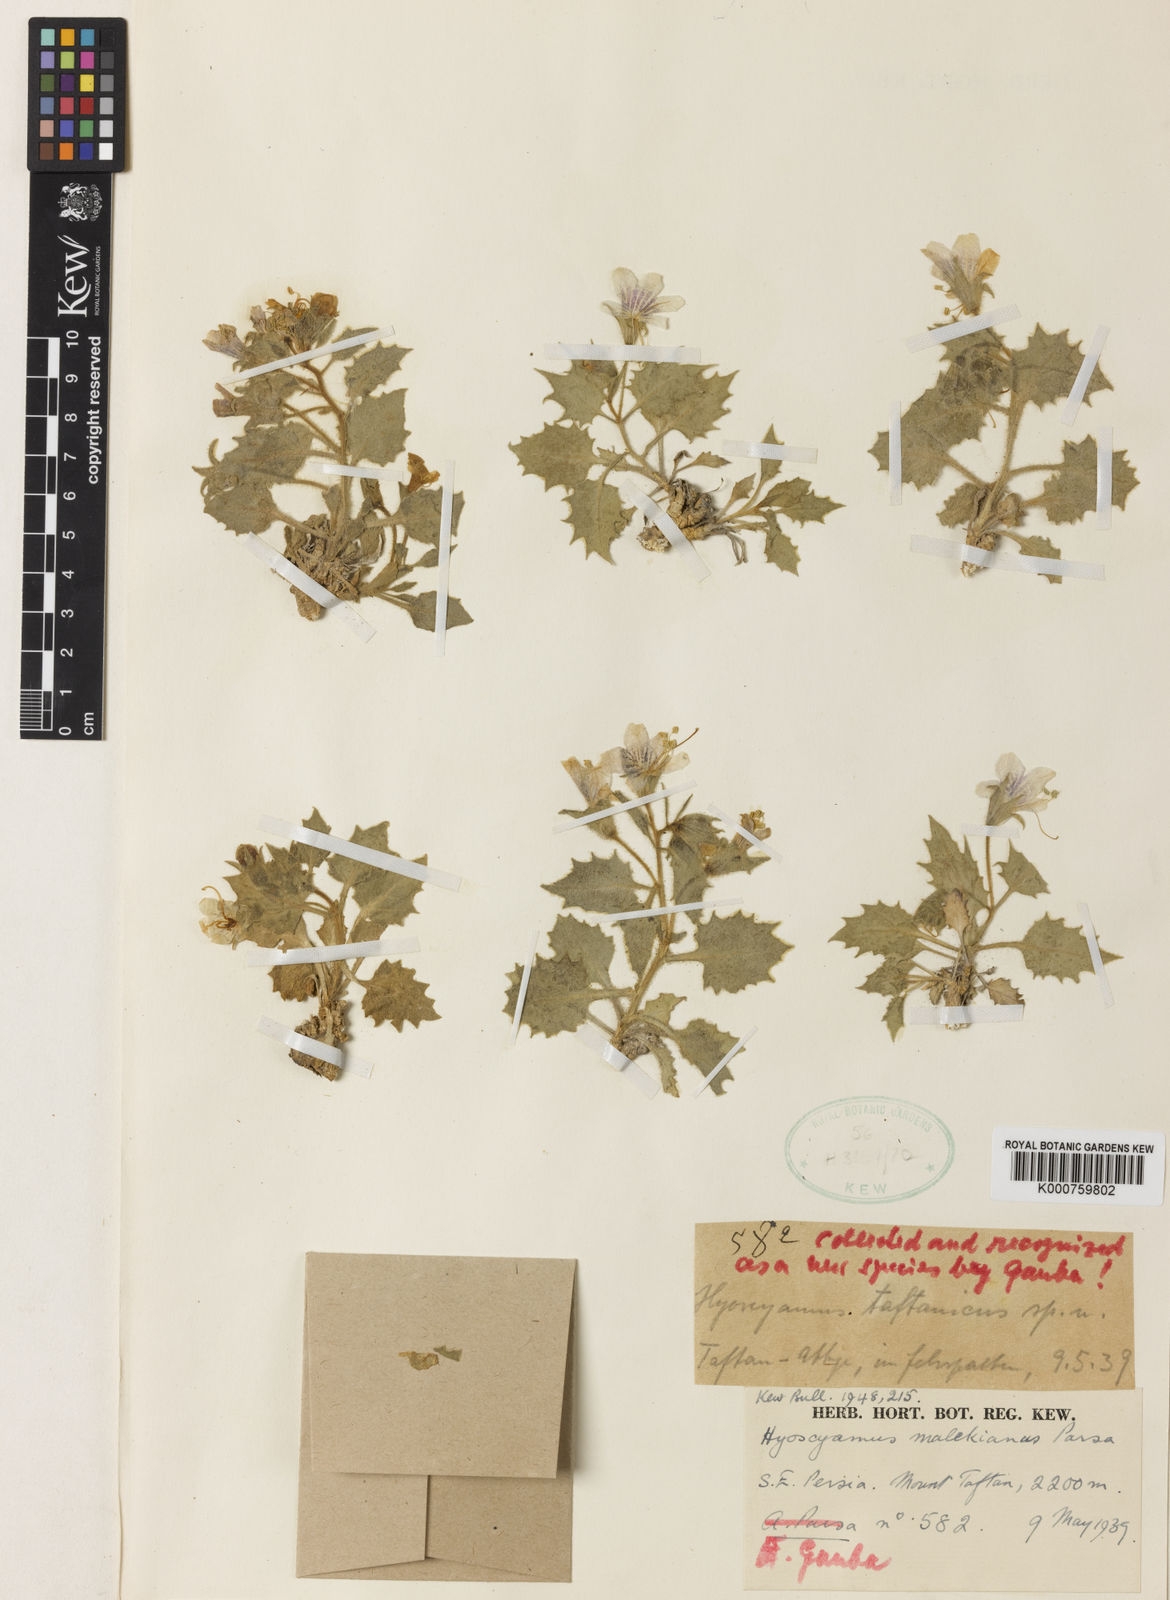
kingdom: Plantae
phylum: Tracheophyta
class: Magnoliopsida
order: Solanales
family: Solanaceae
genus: Hyoscyamus
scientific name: Hyoscyamus malekianus
